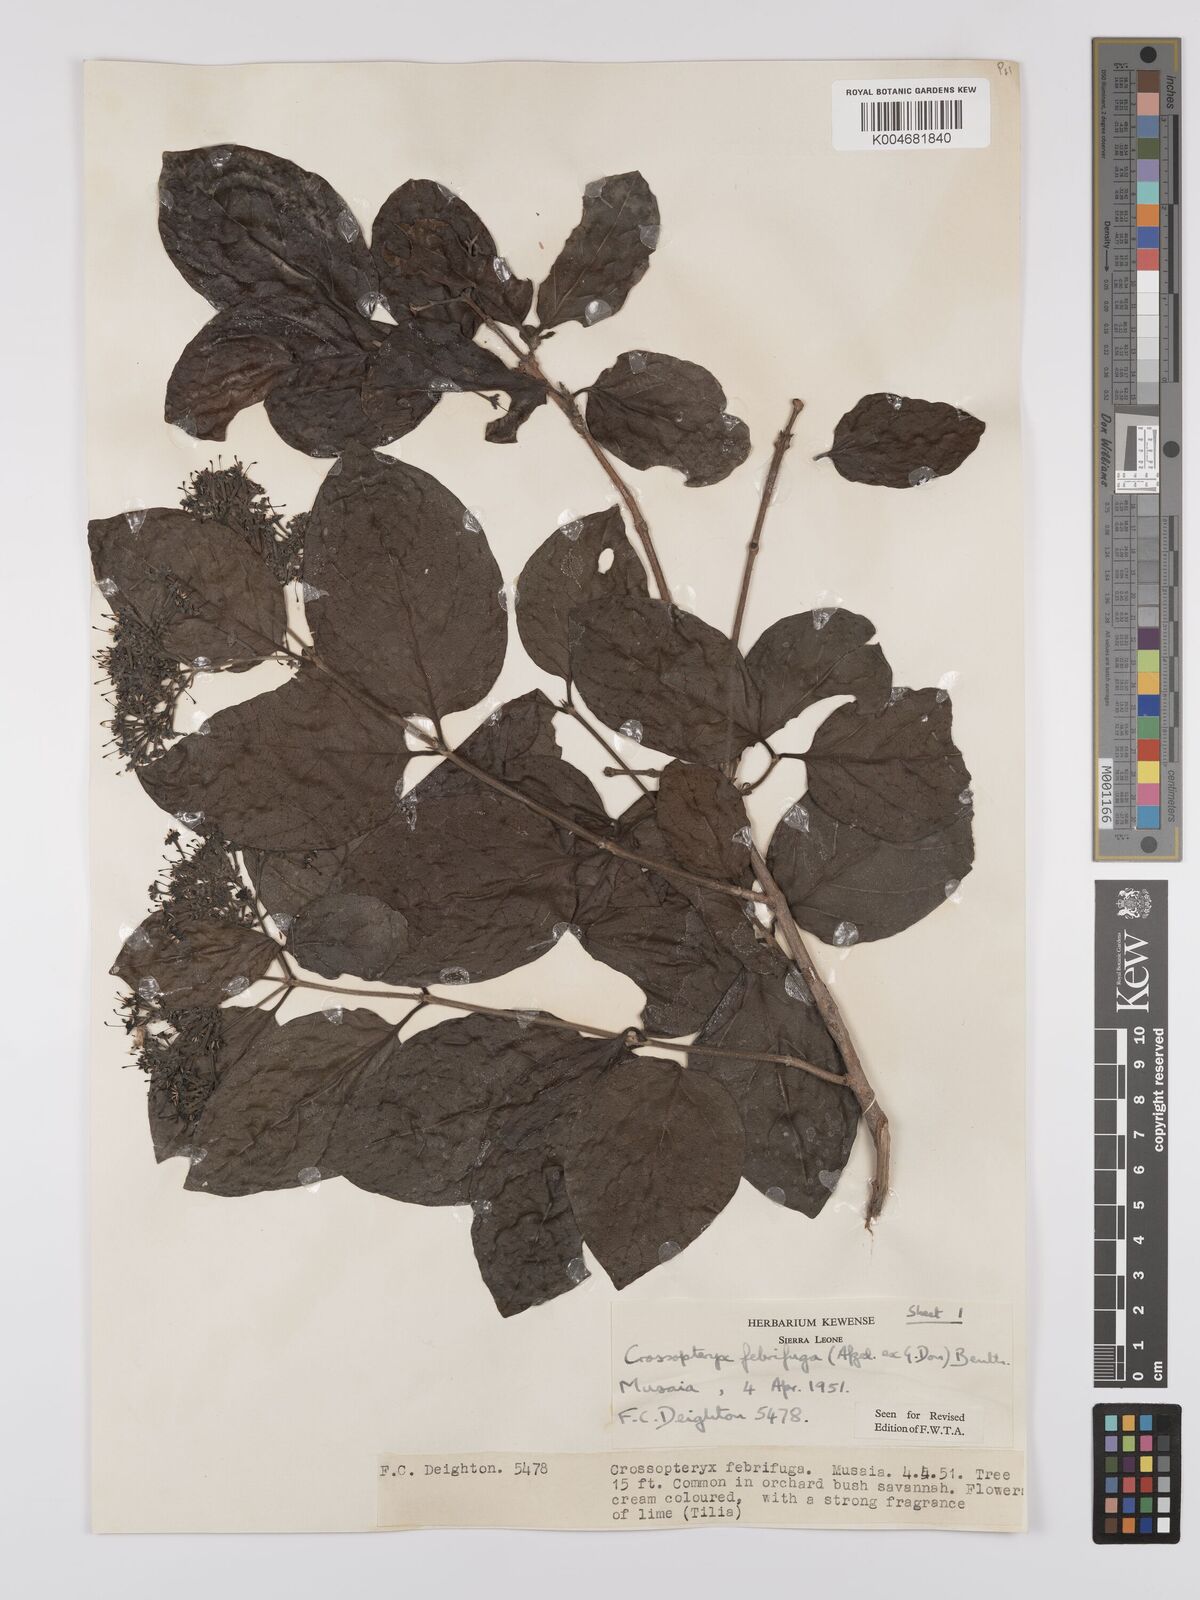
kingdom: Plantae
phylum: Tracheophyta
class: Magnoliopsida
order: Gentianales
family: Rubiaceae
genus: Crossopteryx
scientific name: Crossopteryx febrifuga
